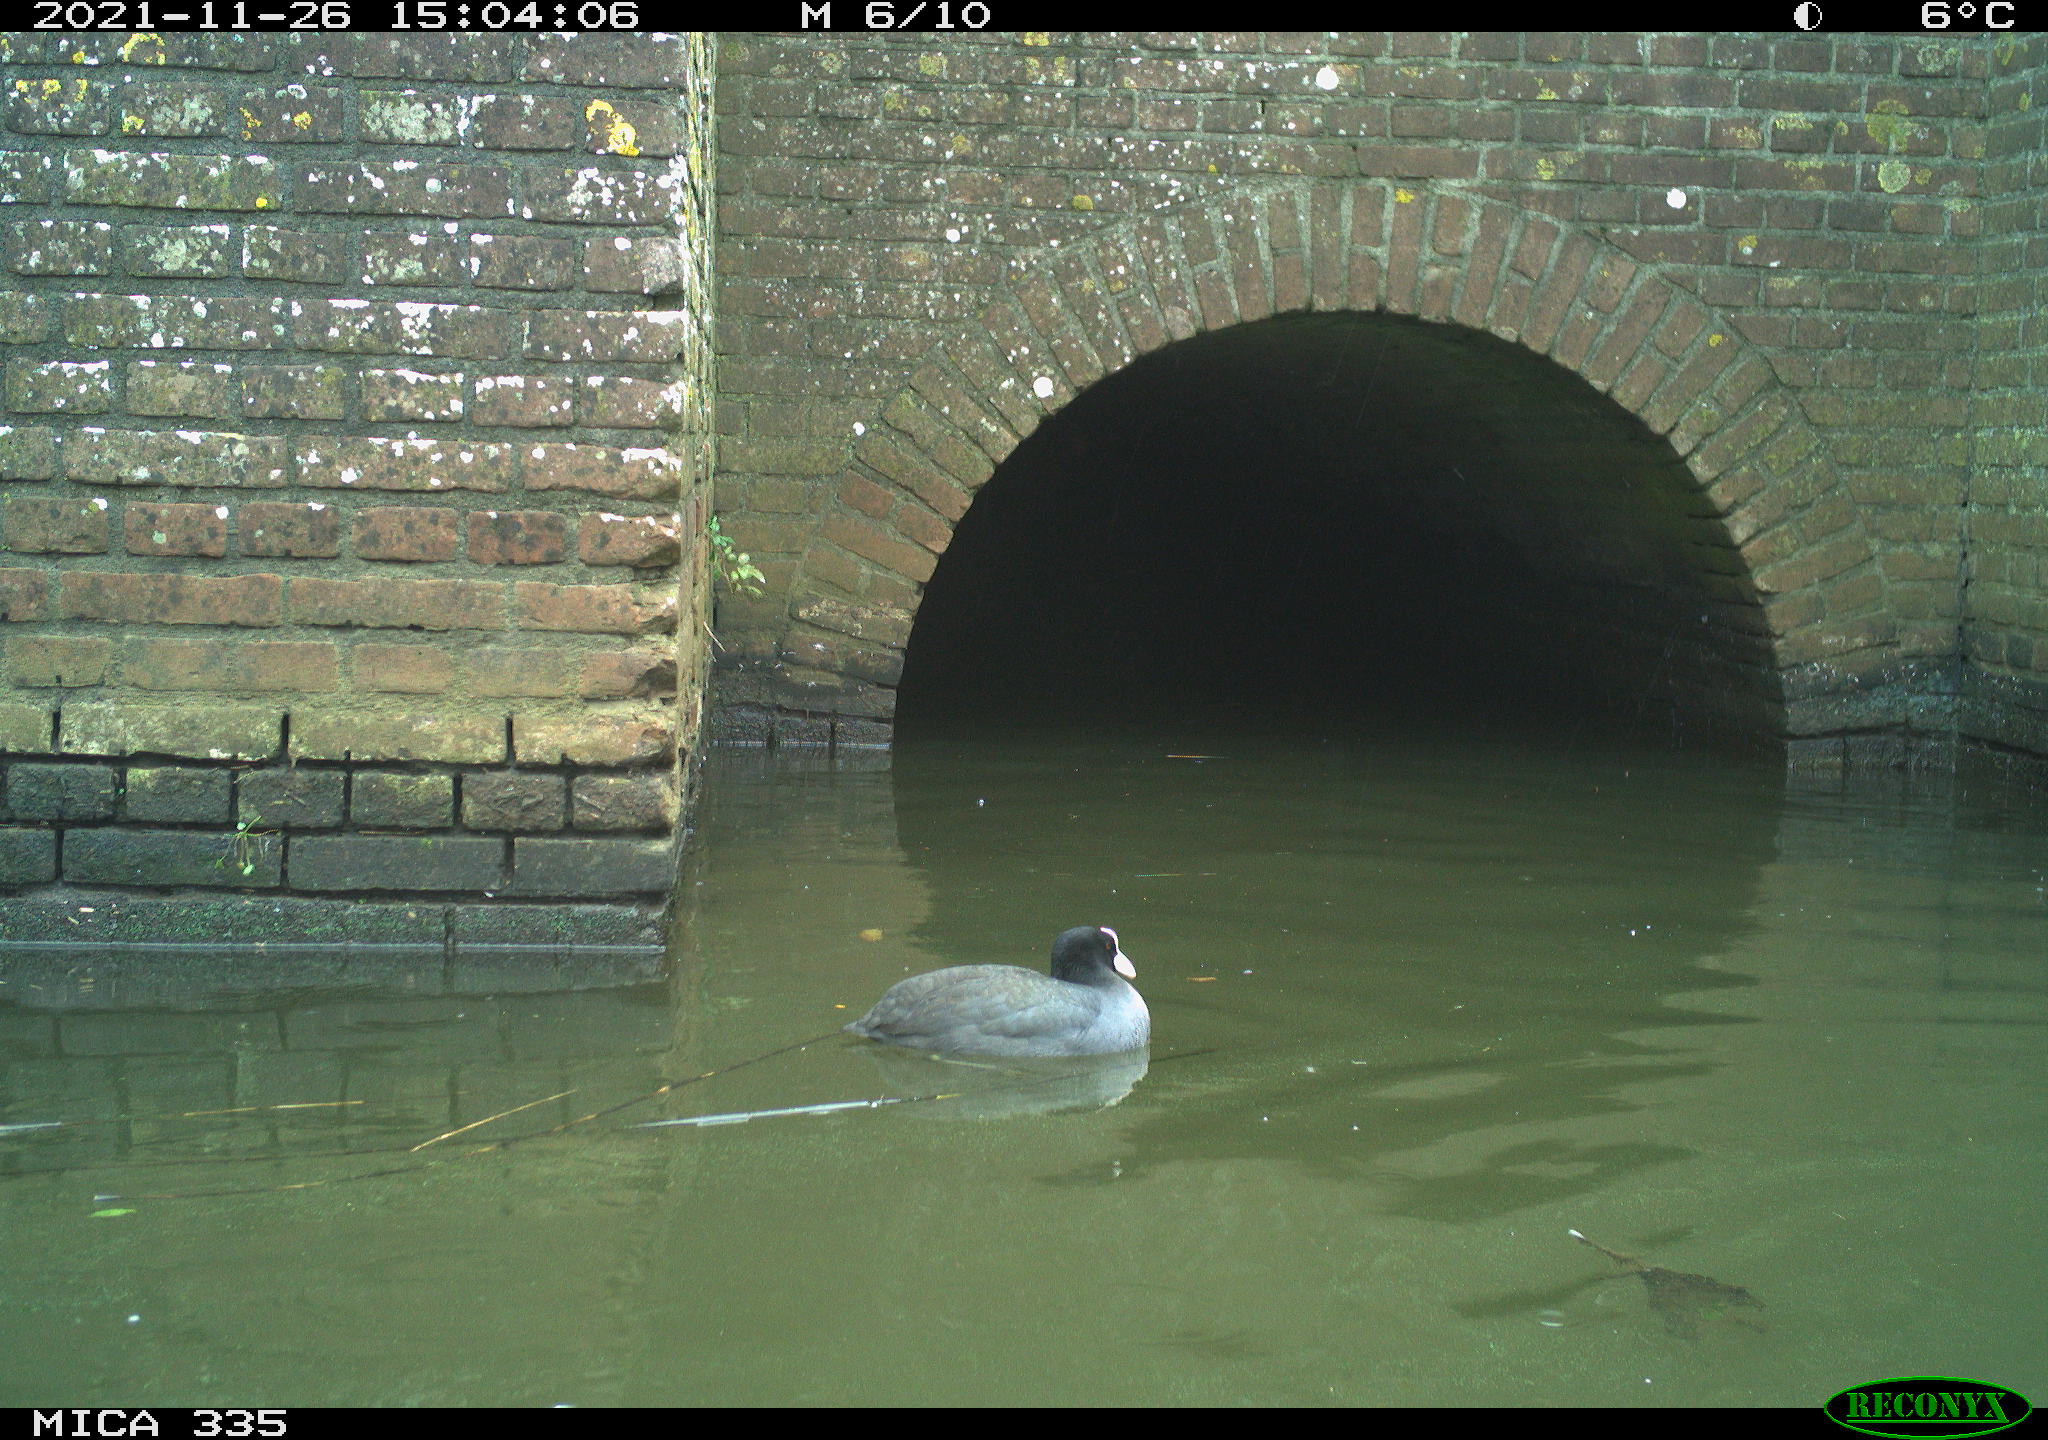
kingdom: Animalia
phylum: Chordata
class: Aves
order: Gruiformes
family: Rallidae
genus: Fulica
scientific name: Fulica atra
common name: Eurasian coot
